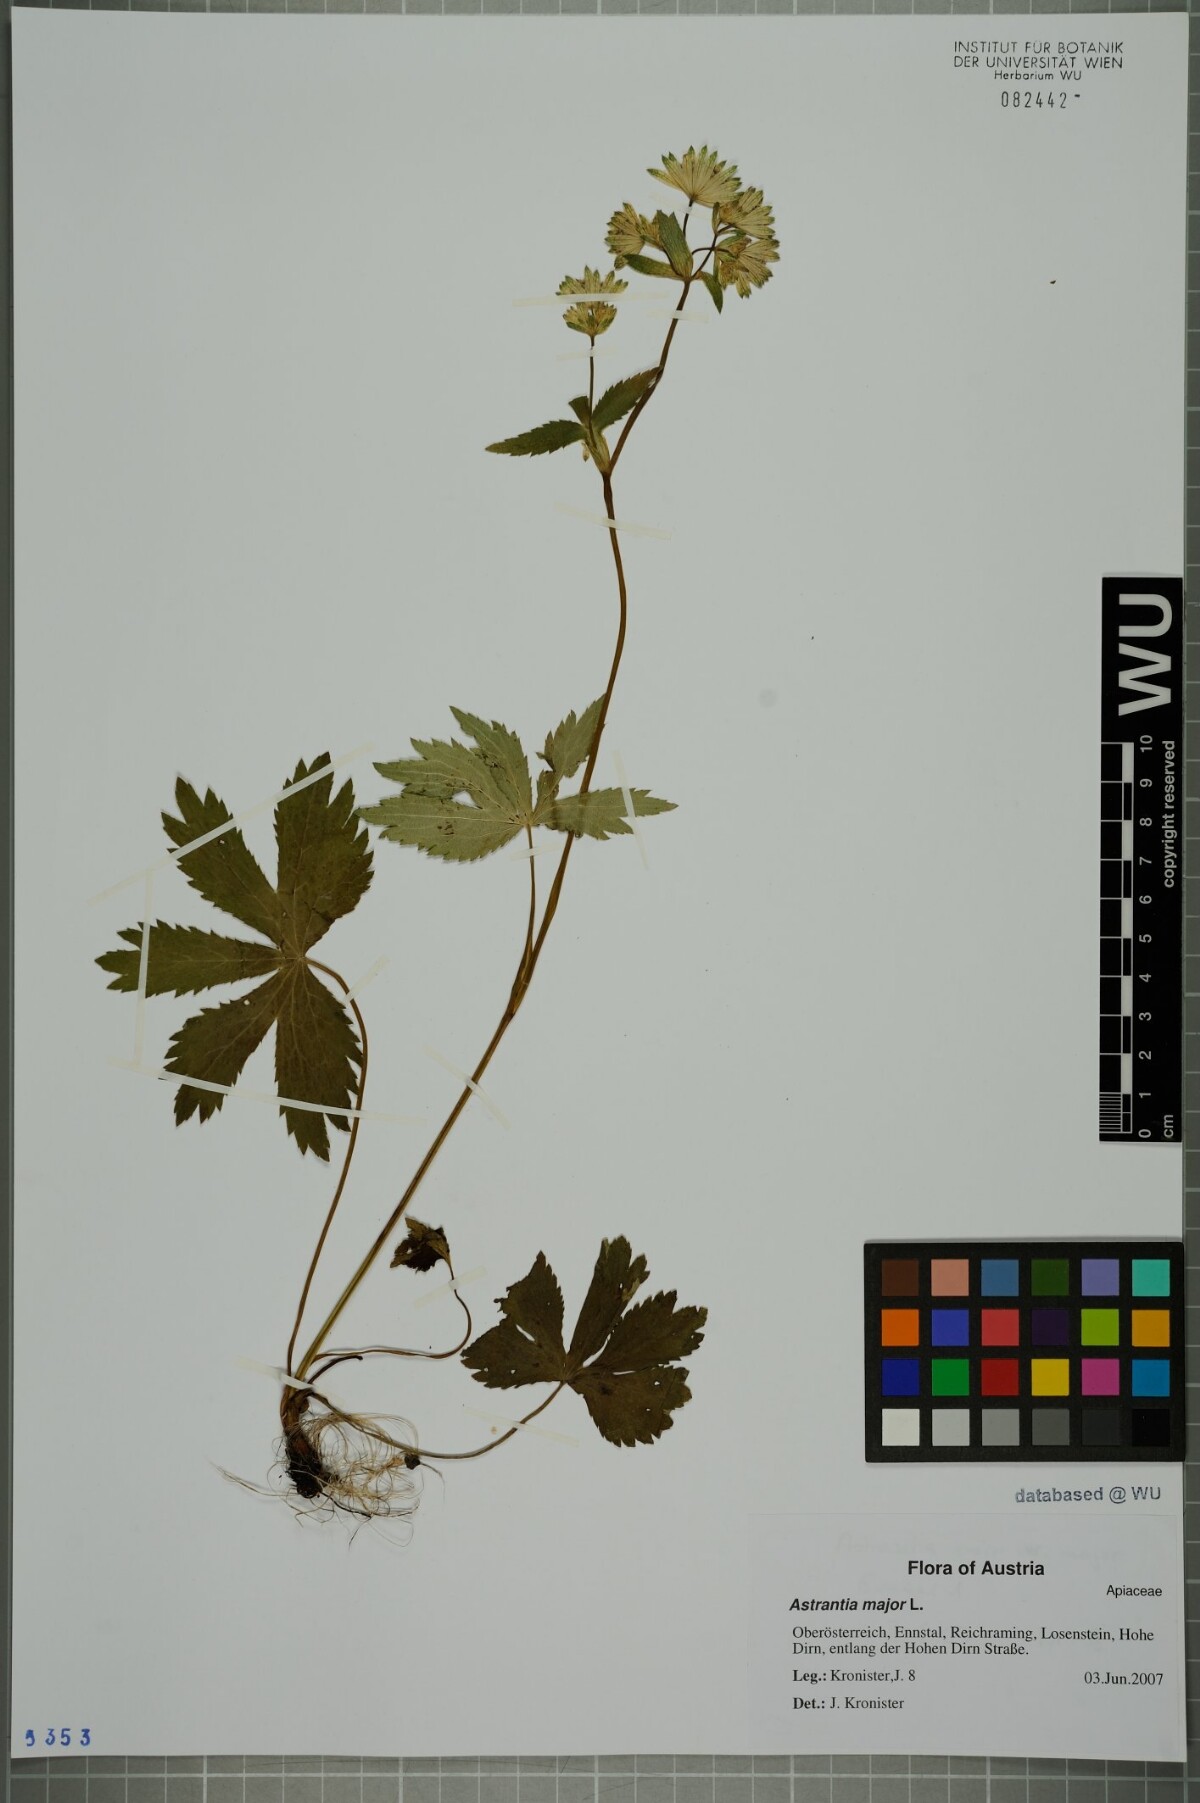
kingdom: Plantae
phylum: Tracheophyta
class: Magnoliopsida
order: Apiales
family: Apiaceae
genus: Astrantia
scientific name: Astrantia major
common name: Greater masterwort
